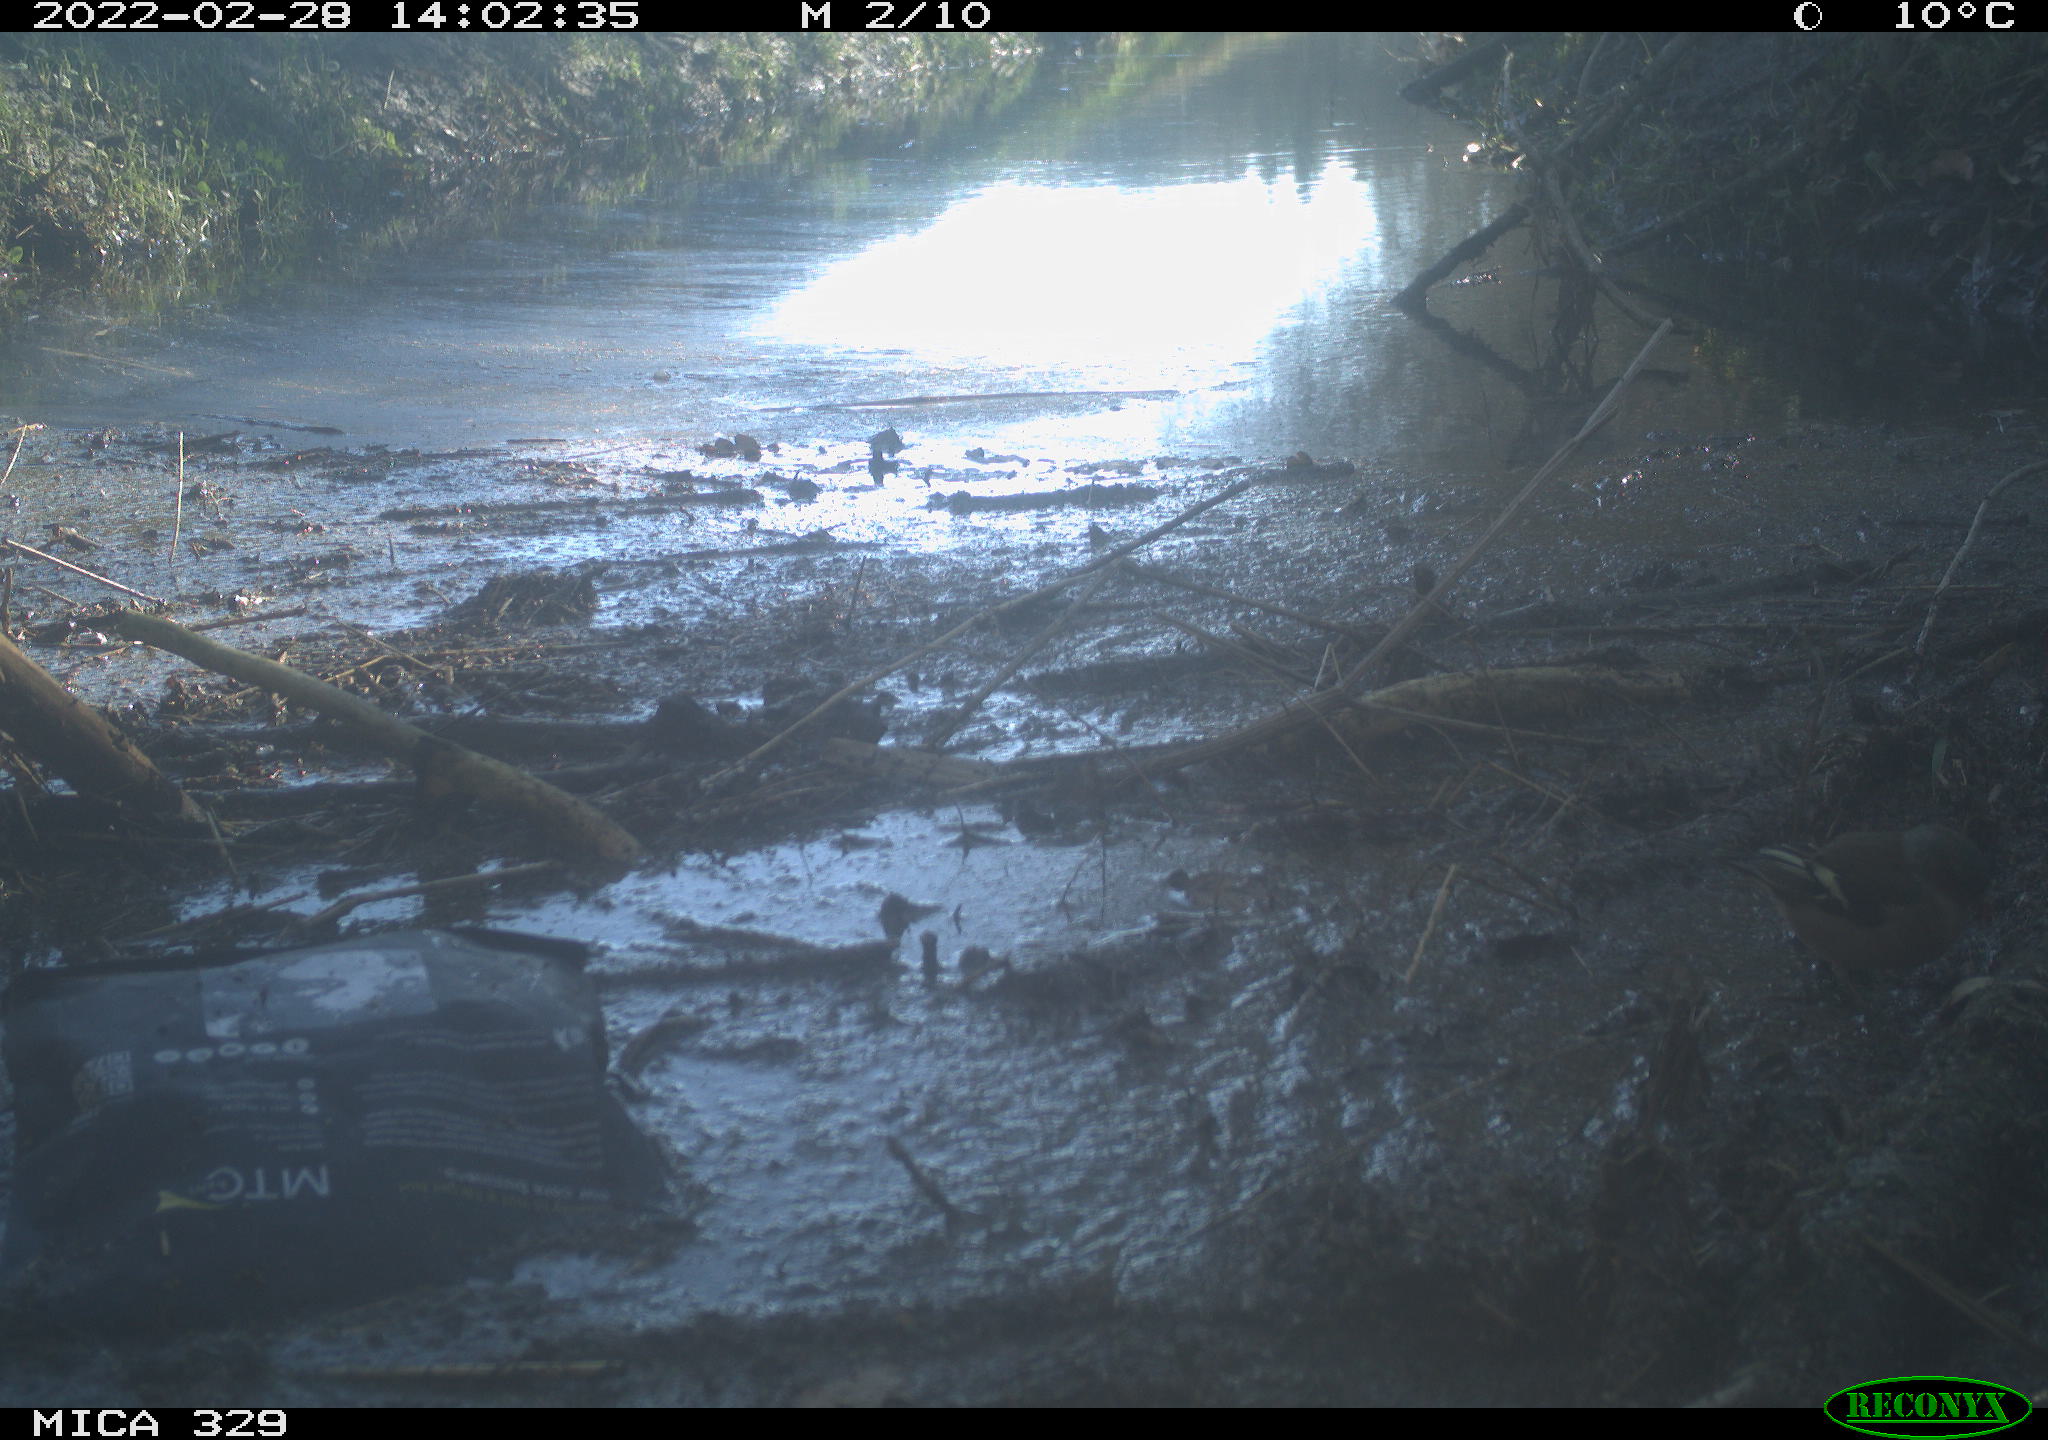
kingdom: Animalia
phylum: Chordata
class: Aves
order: Passeriformes
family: Fringillidae
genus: Fringilla
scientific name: Fringilla coelebs
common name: Common chaffinch
